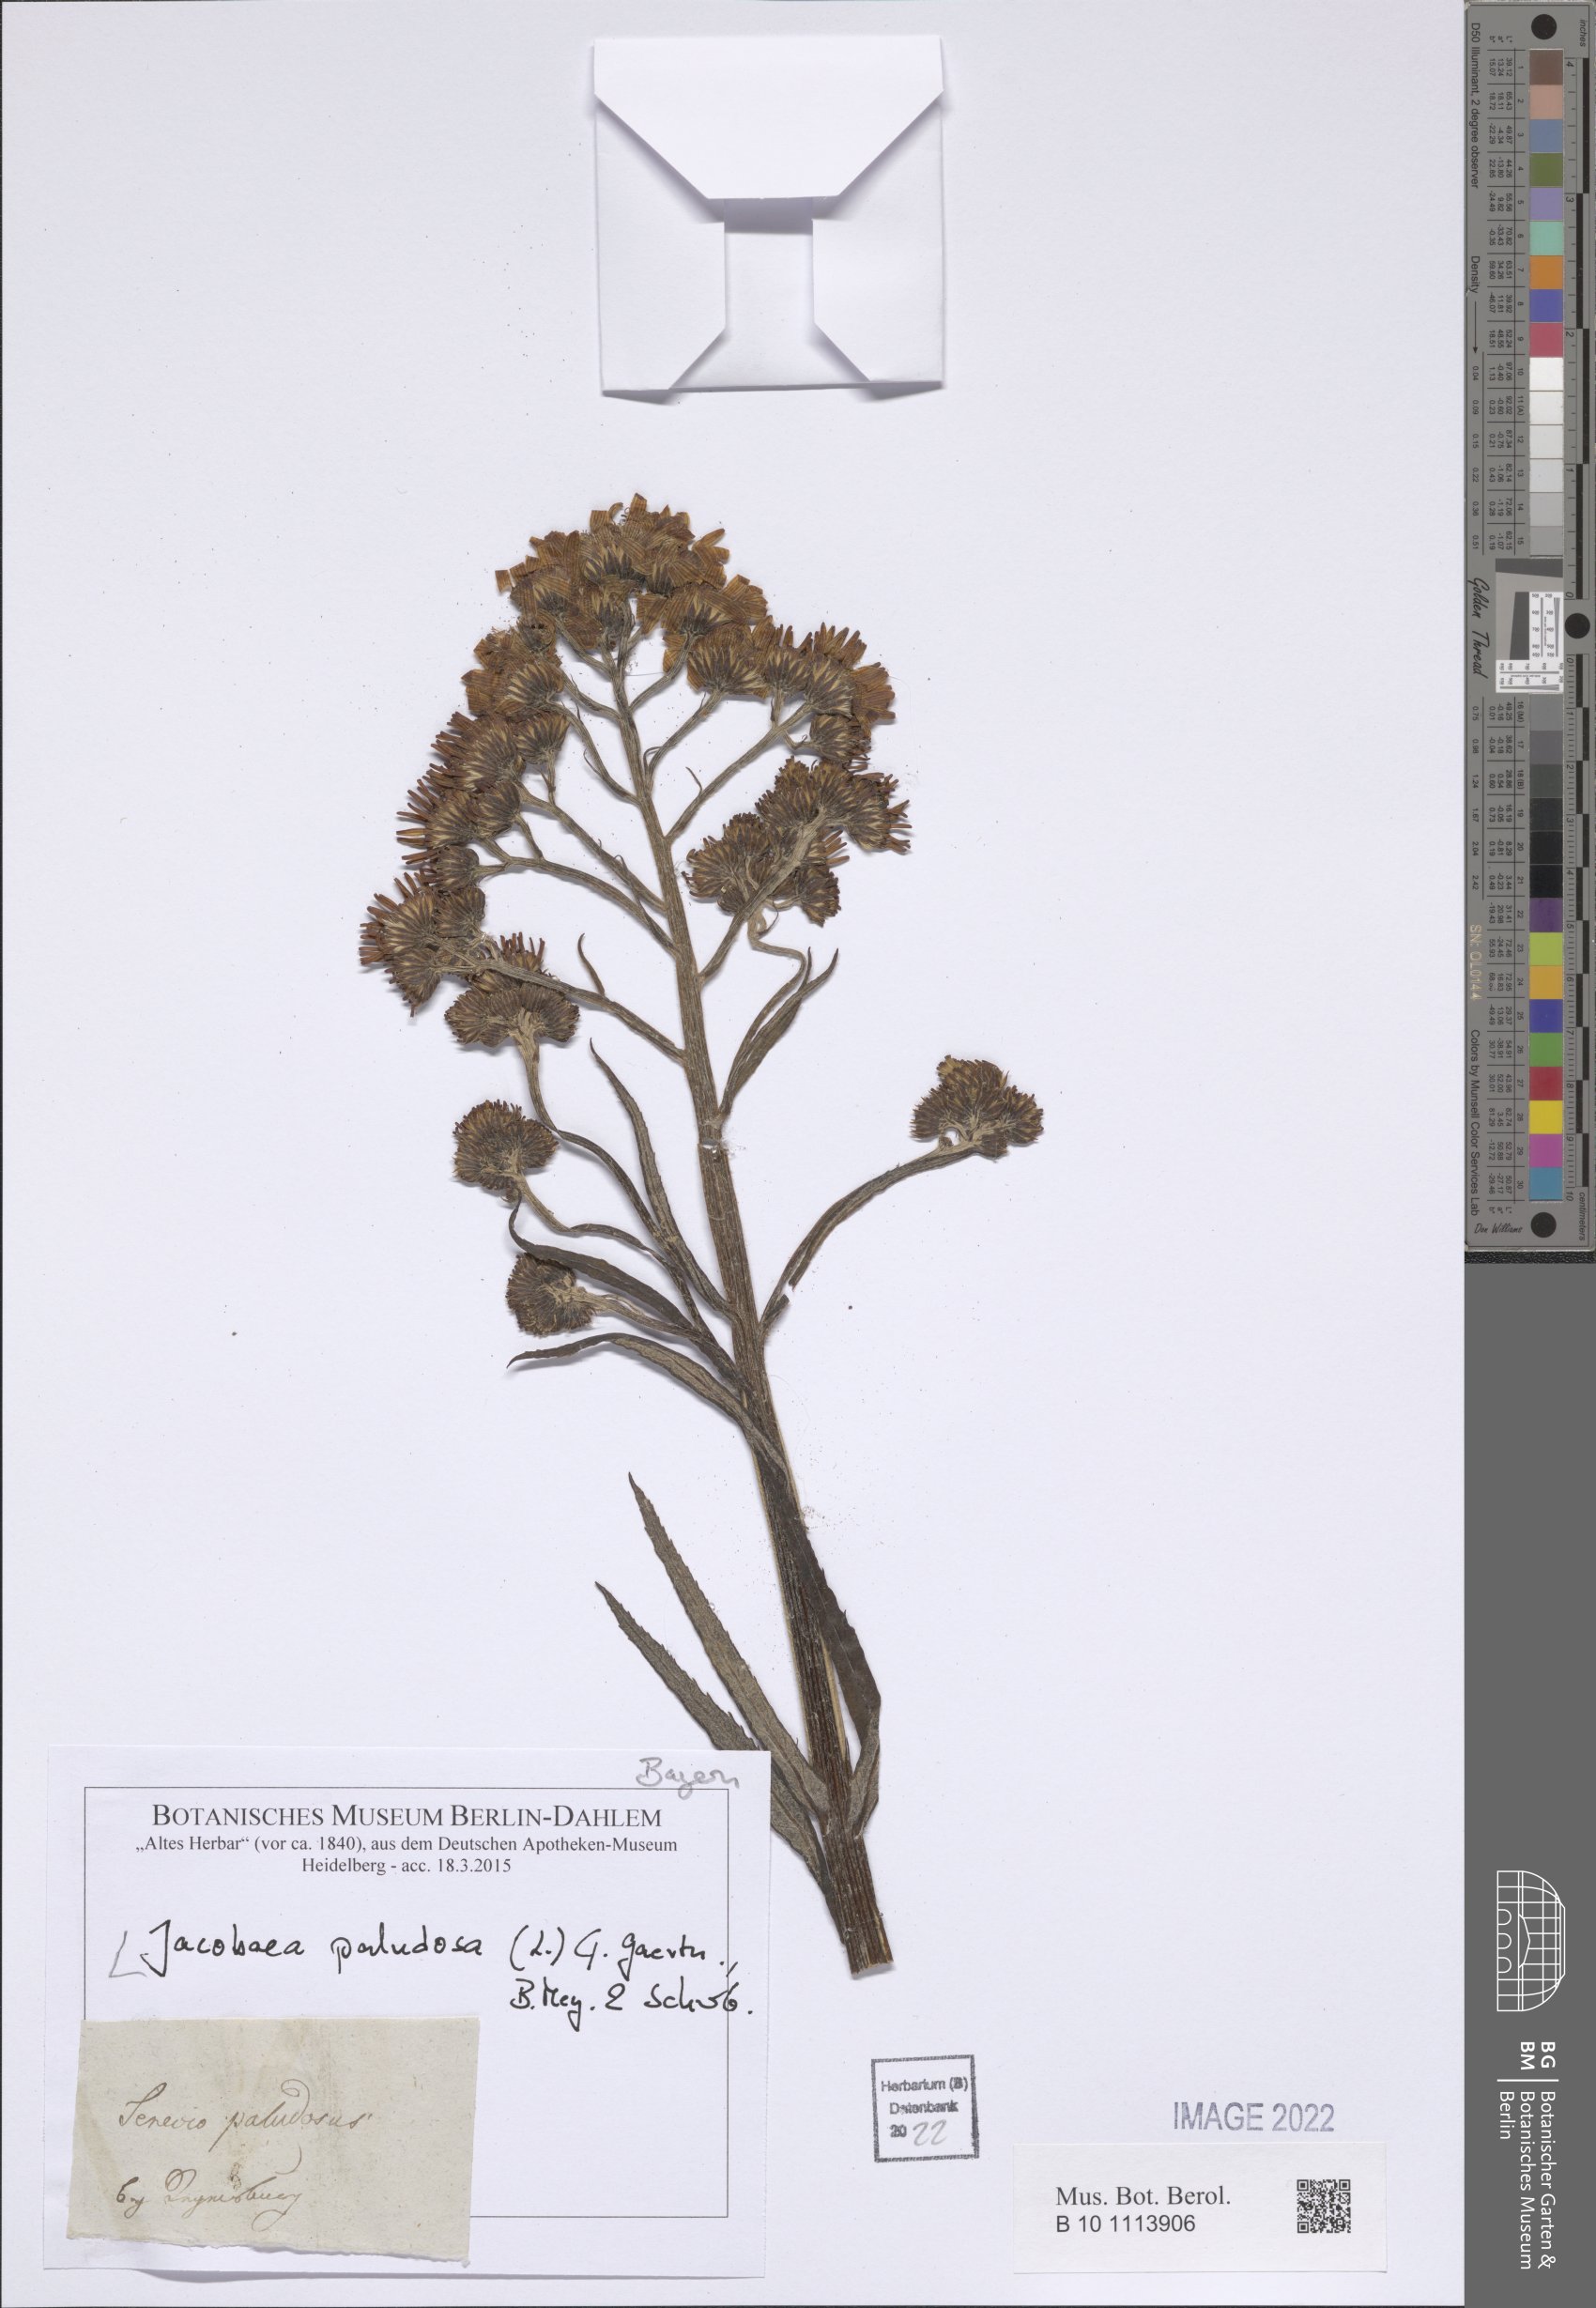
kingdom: Plantae
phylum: Tracheophyta
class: Magnoliopsida
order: Asterales
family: Asteraceae
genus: Jacobaea
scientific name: Jacobaea paludosa
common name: Fen ragwort
